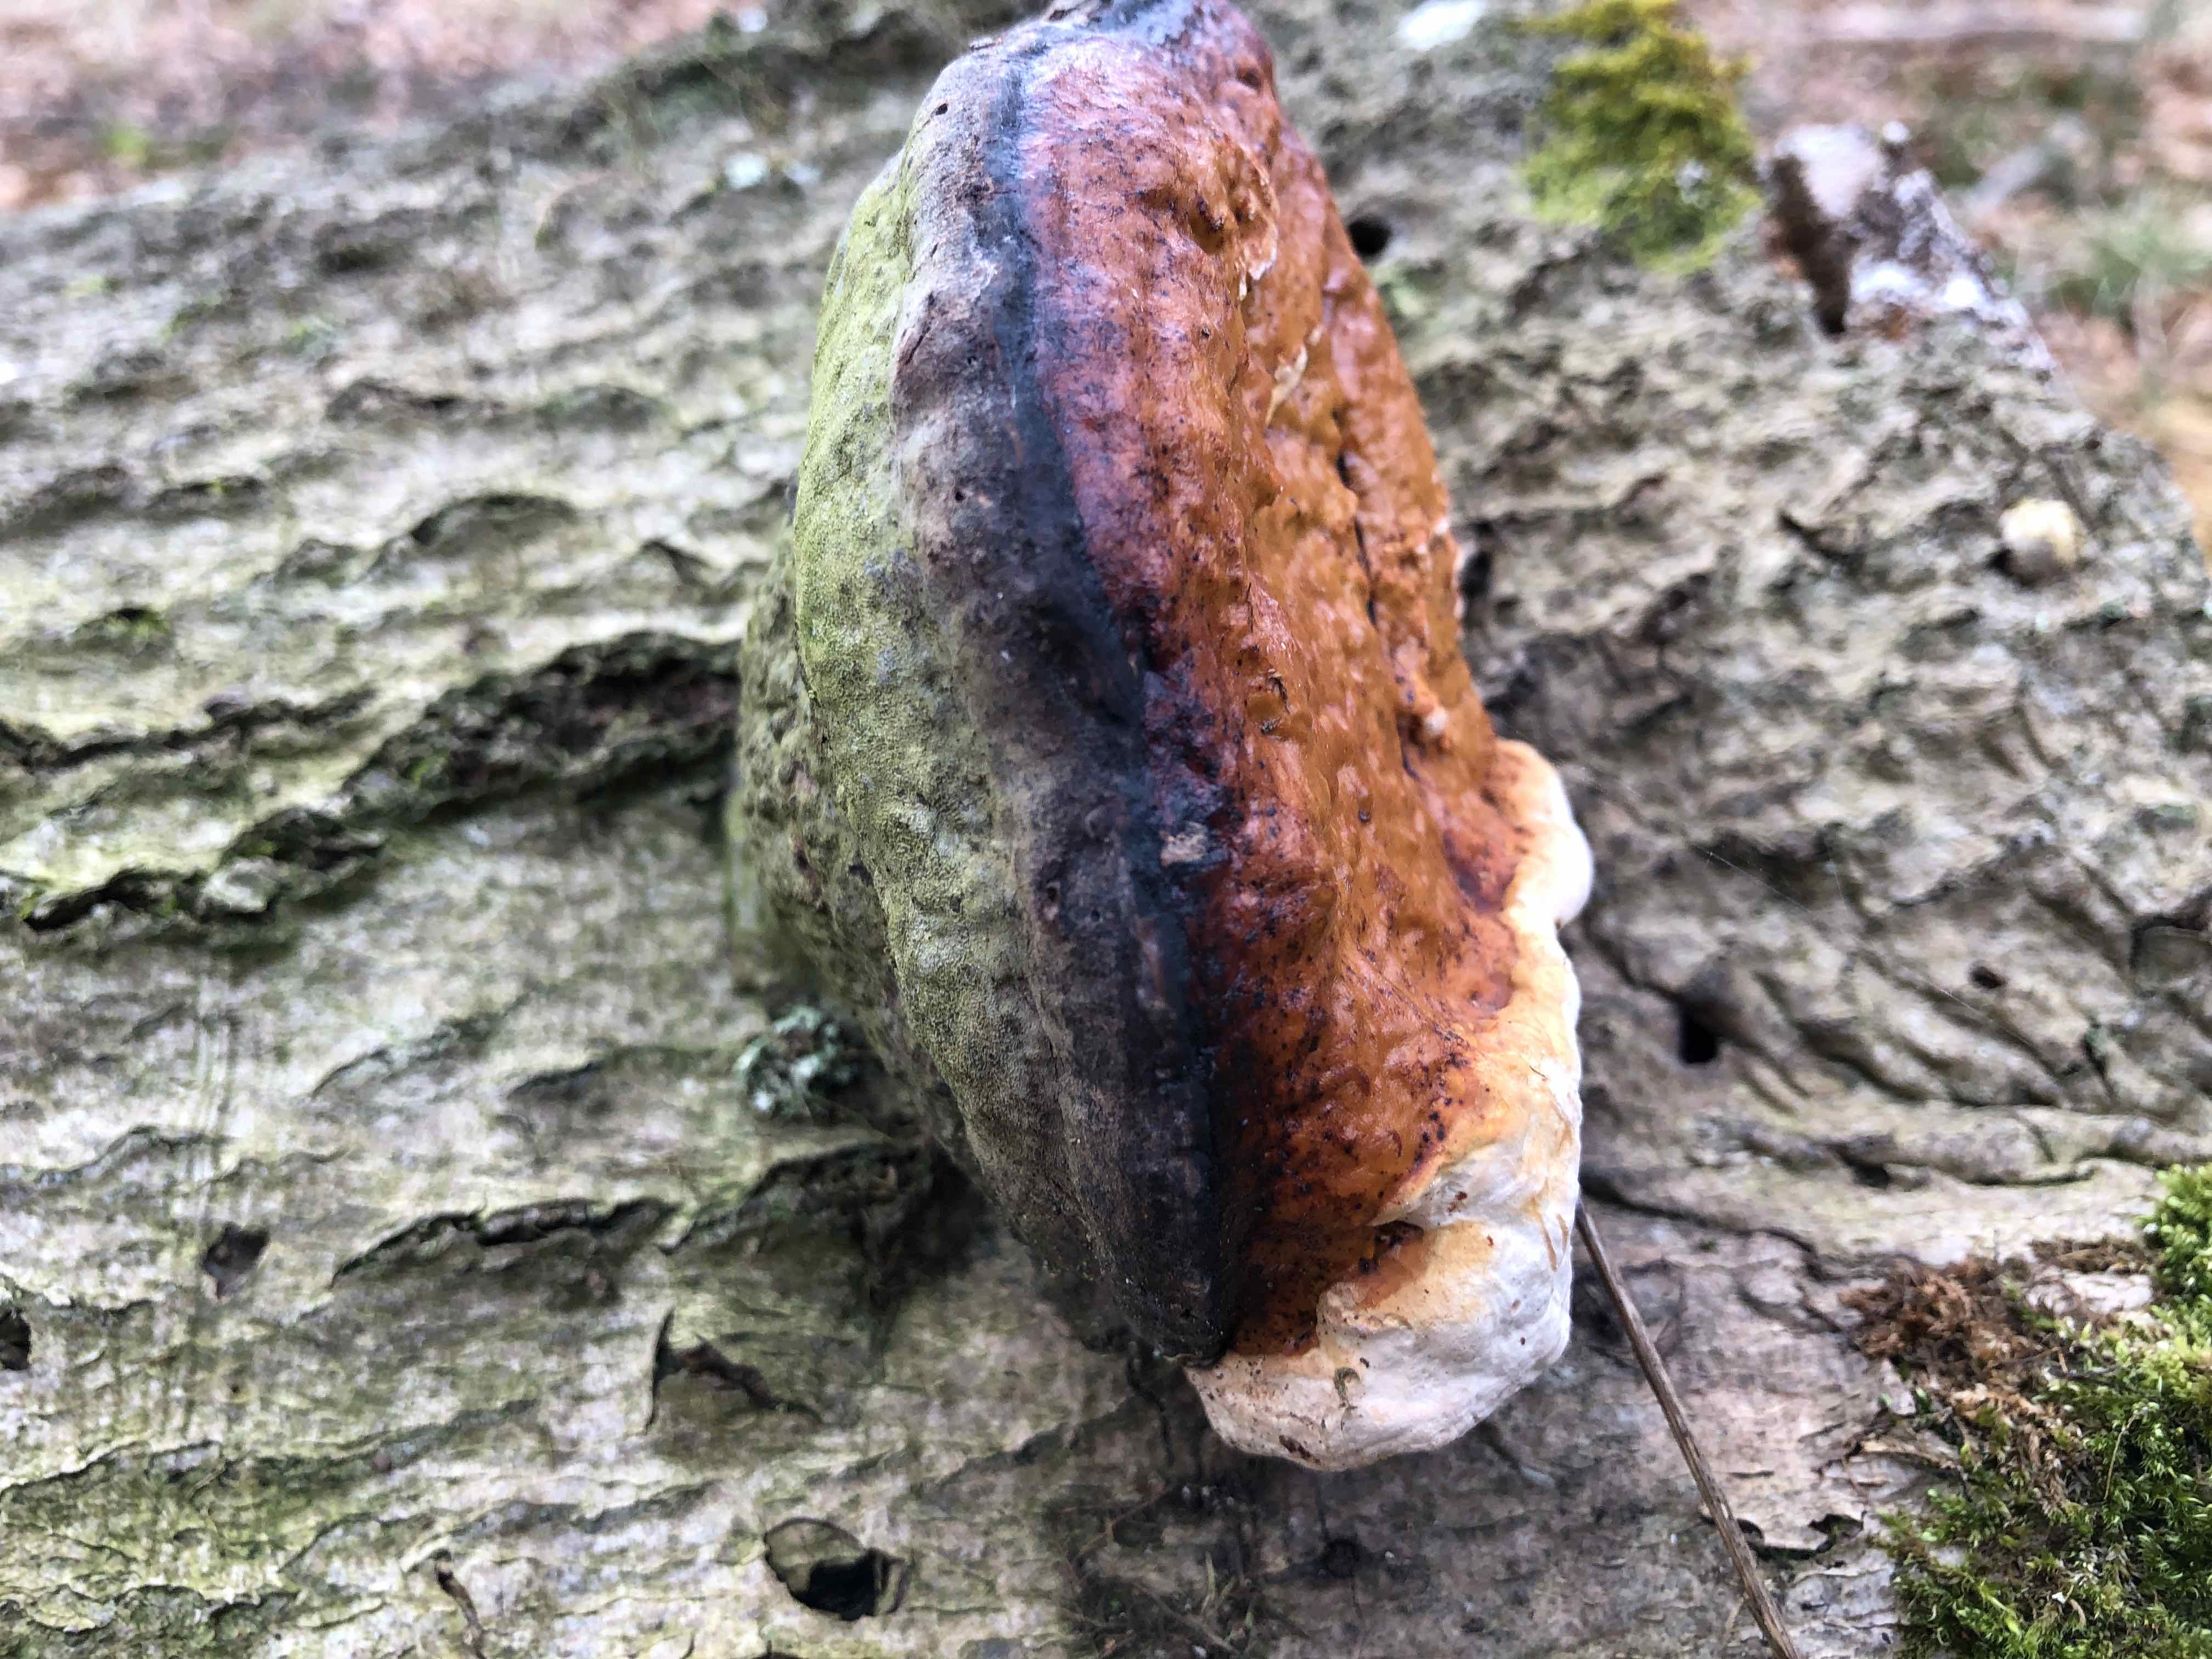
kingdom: Fungi
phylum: Basidiomycota
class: Agaricomycetes
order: Polyporales
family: Fomitopsidaceae
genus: Fomitopsis
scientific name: Fomitopsis pinicola
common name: randbæltet hovporesvamp
